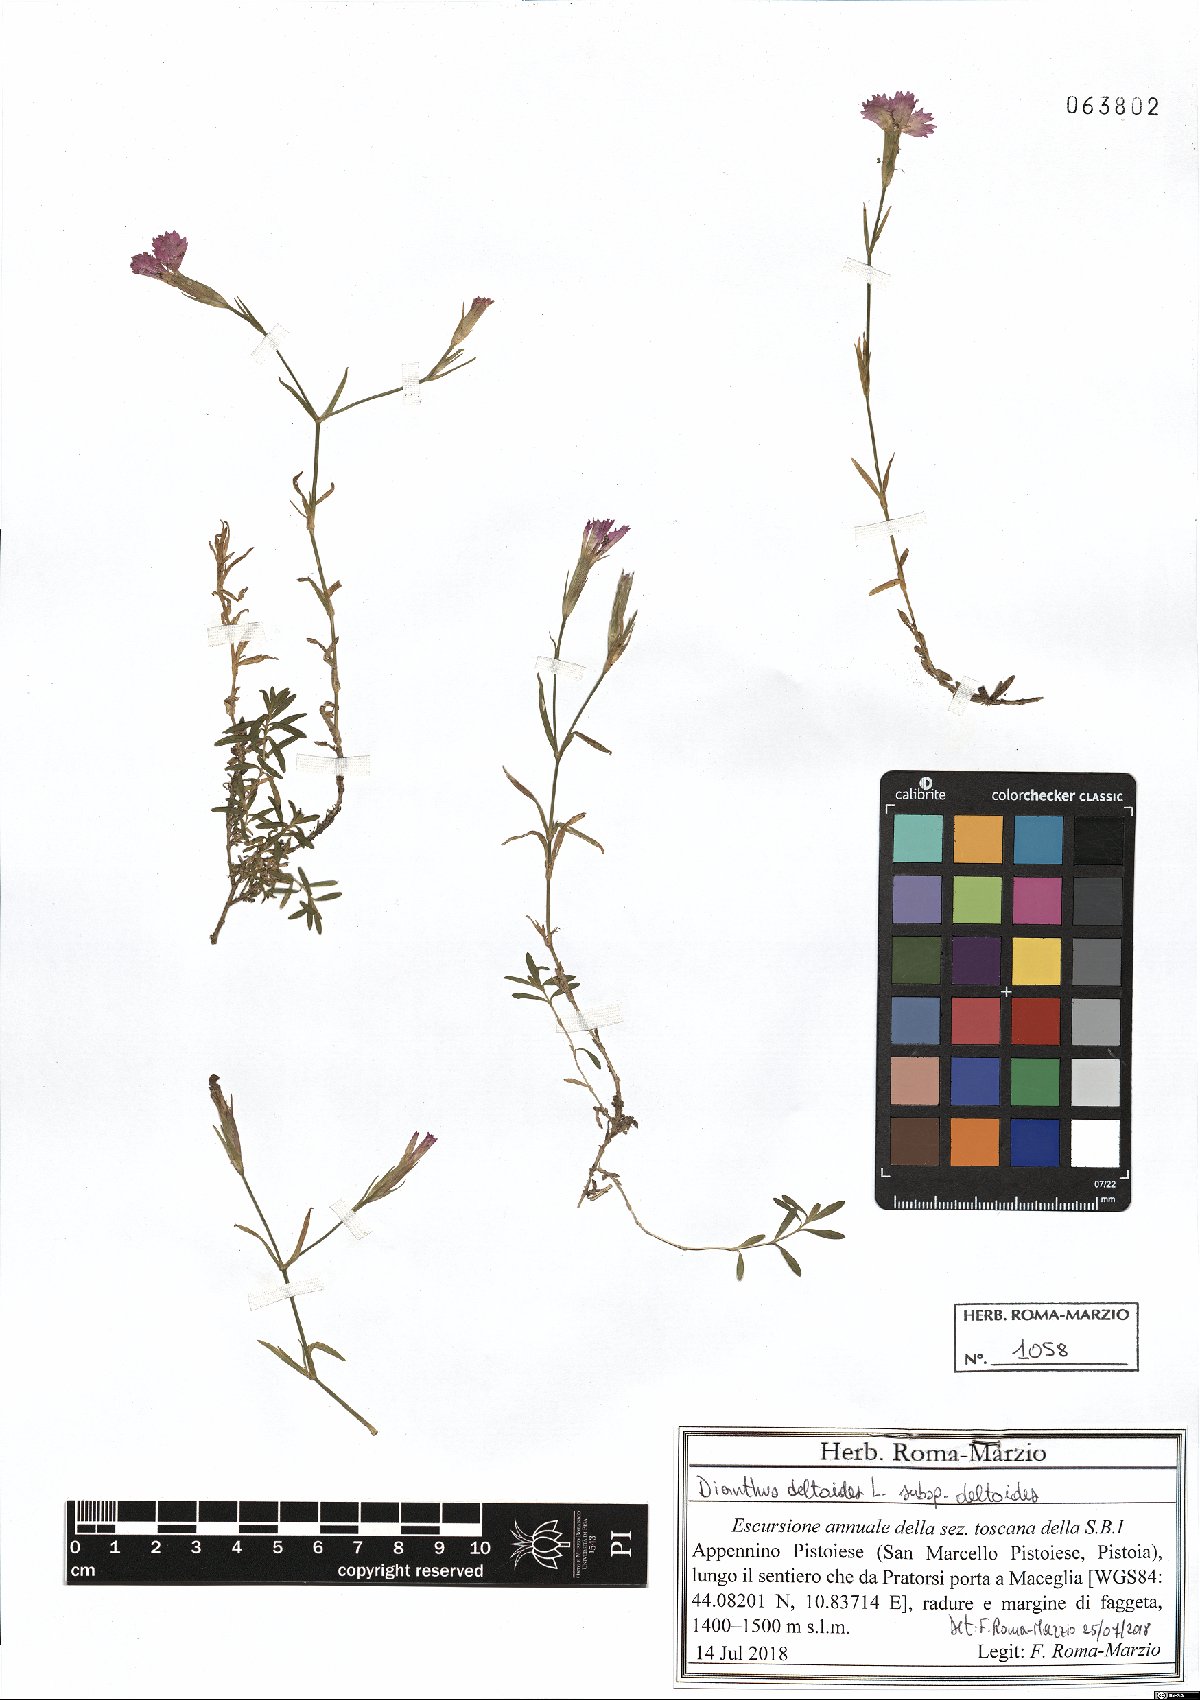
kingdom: Plantae
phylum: Tracheophyta
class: Magnoliopsida
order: Caryophyllales
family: Caryophyllaceae
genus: Dianthus
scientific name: Dianthus deltoides
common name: Maiden pink
